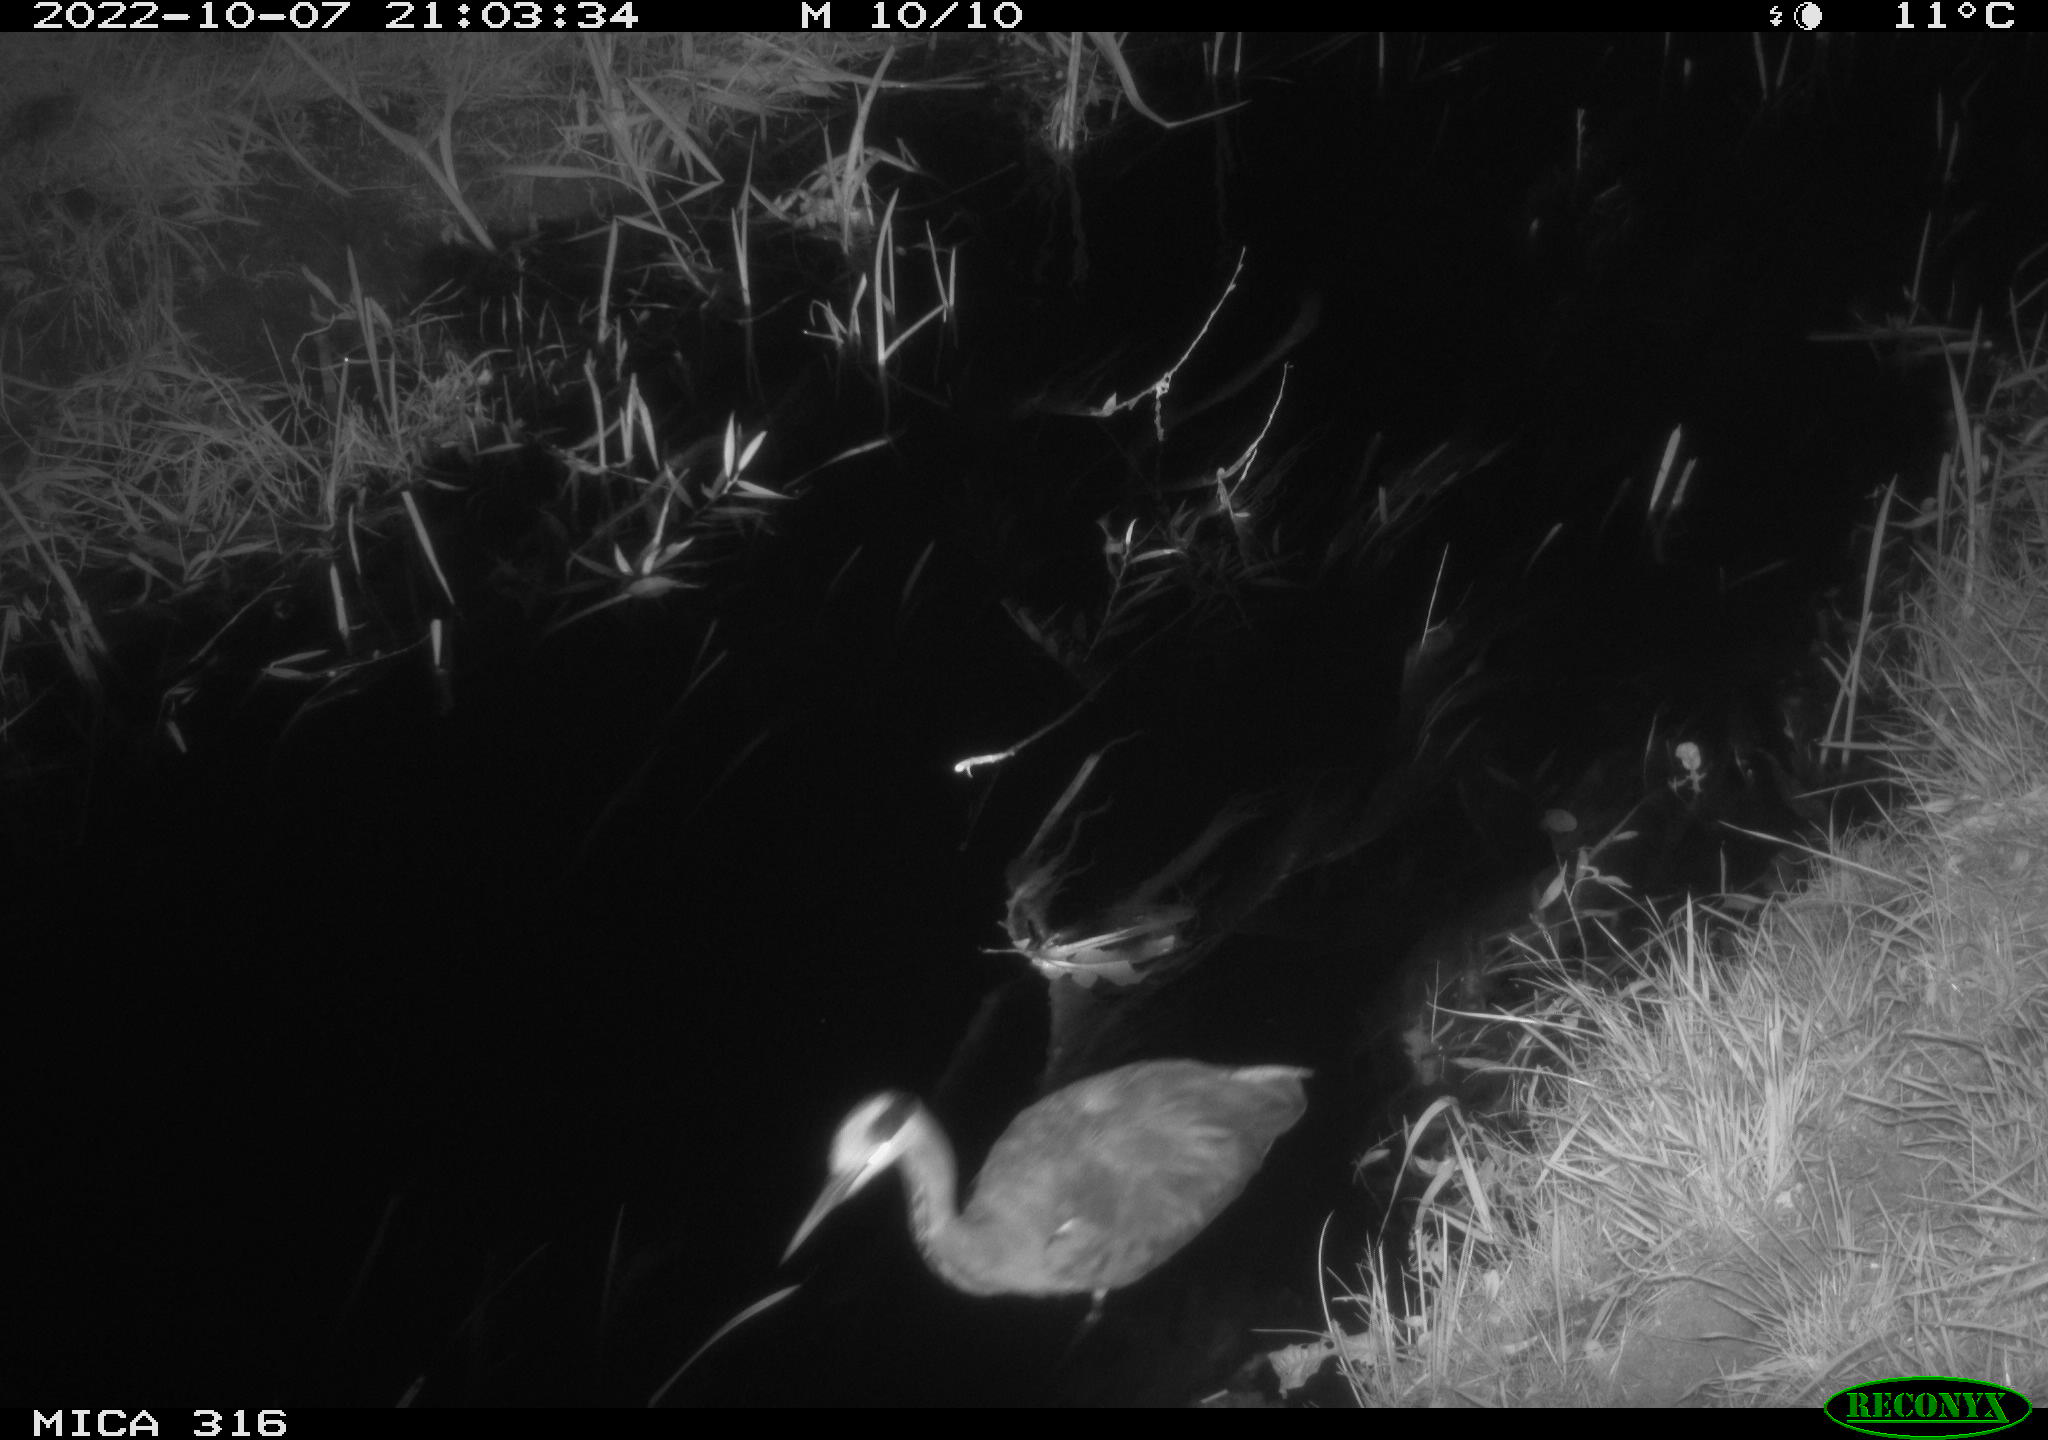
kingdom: Animalia
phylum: Chordata
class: Aves
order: Pelecaniformes
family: Ardeidae
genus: Ardea
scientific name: Ardea cinerea
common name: Grey heron
